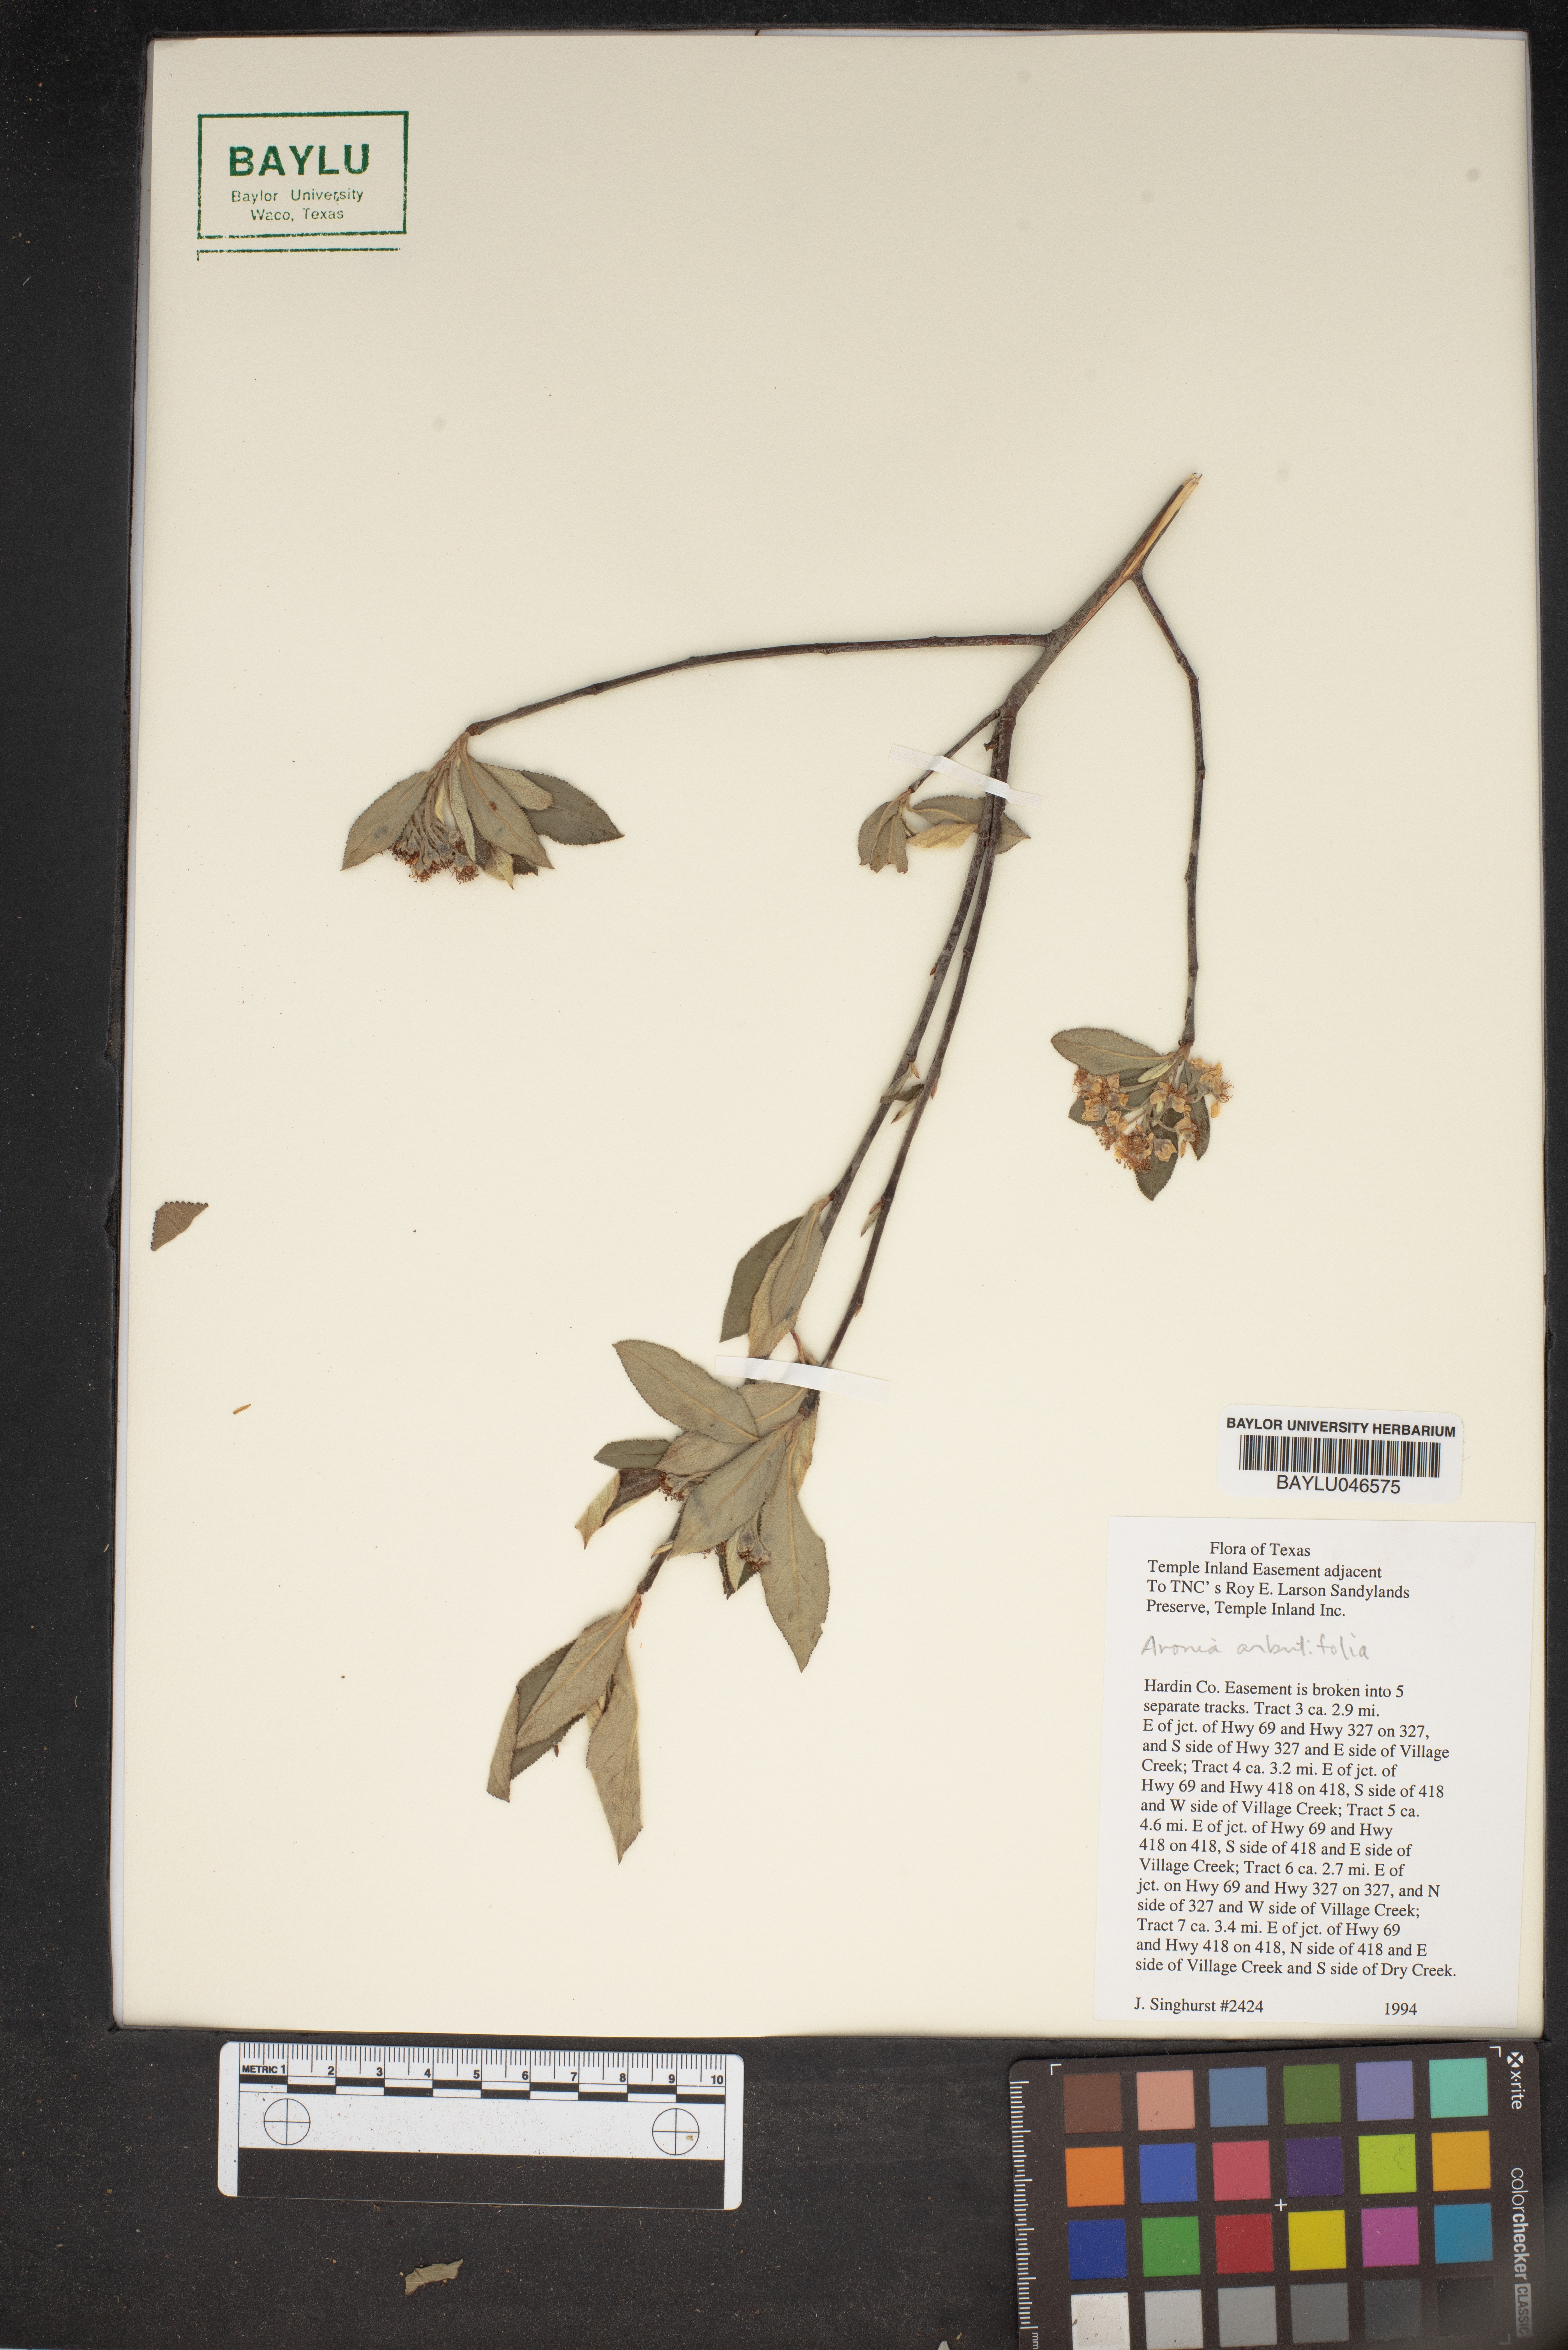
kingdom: Plantae
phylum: Tracheophyta
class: Magnoliopsida
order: Rosales
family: Rosaceae
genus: Aronia
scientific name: Aronia arbutifolia
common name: Red chokeberry
